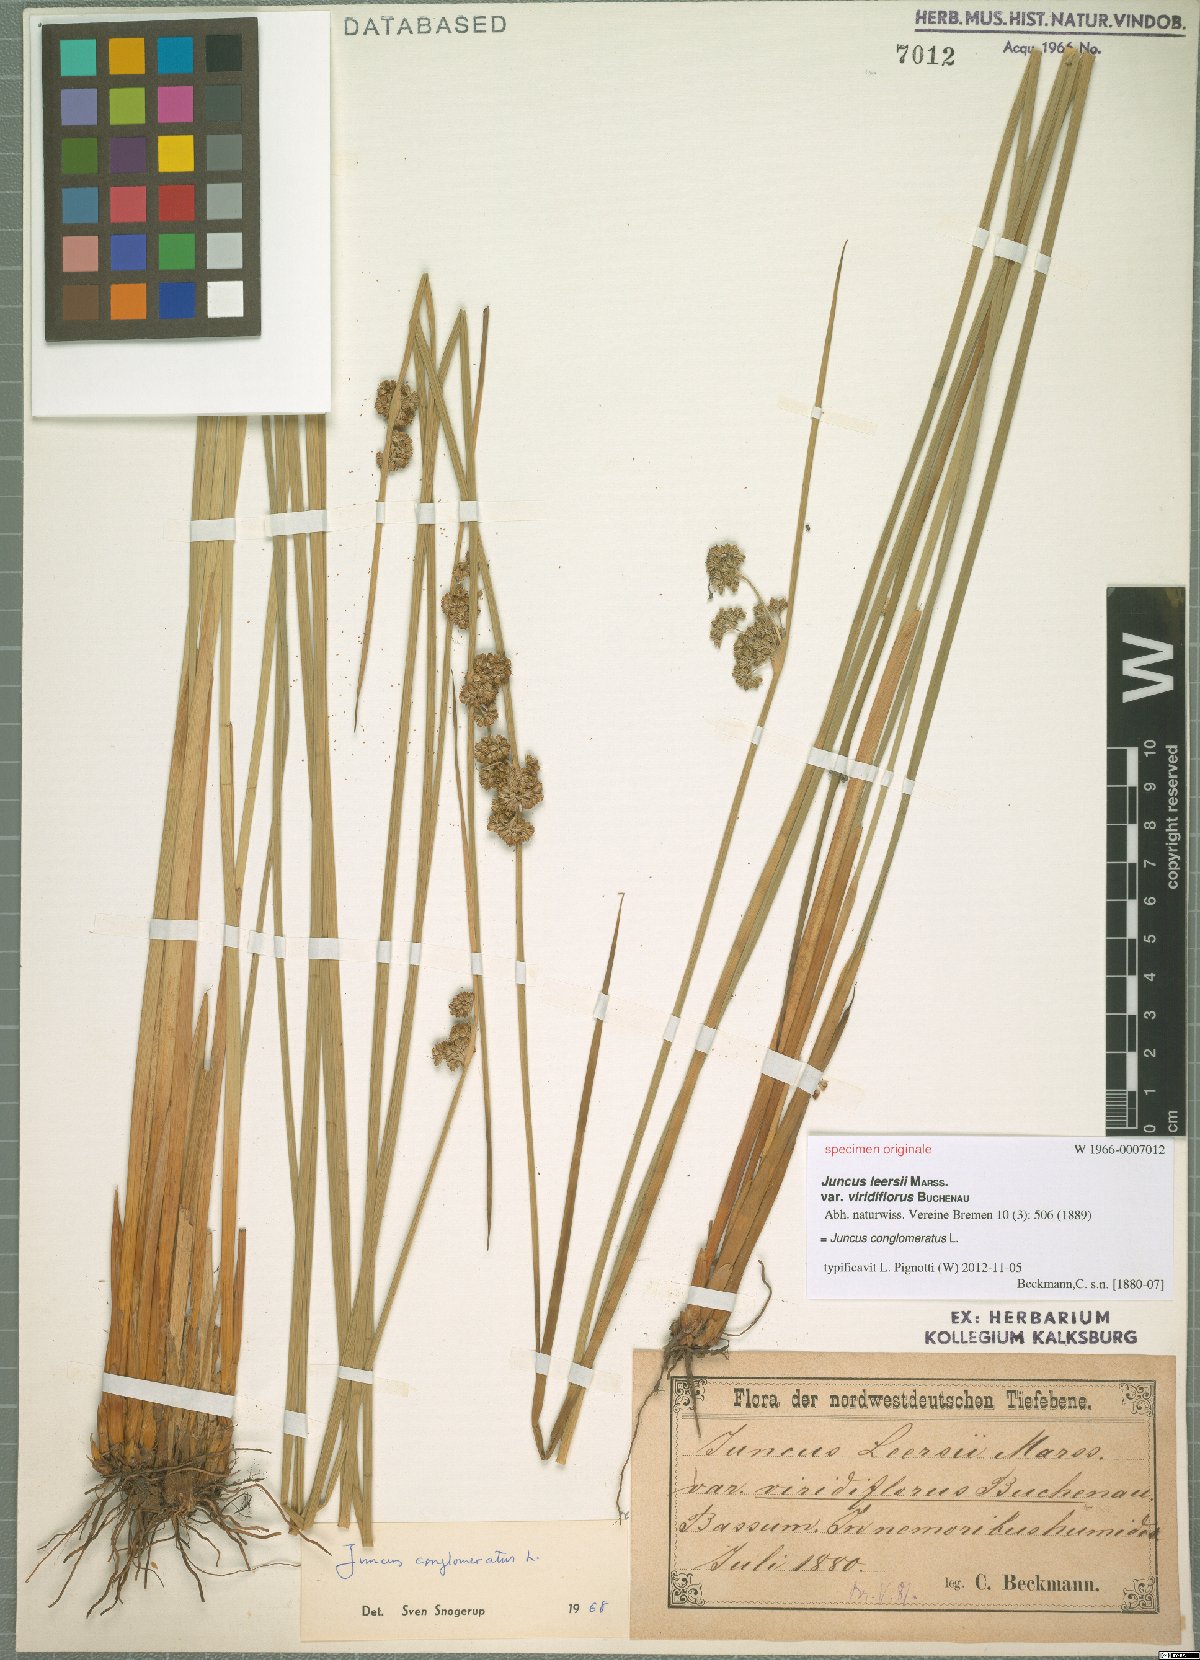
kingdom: Plantae
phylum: Tracheophyta
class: Liliopsida
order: Poales
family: Juncaceae
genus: Juncus
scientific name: Juncus conglomeratus
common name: Compact rush
